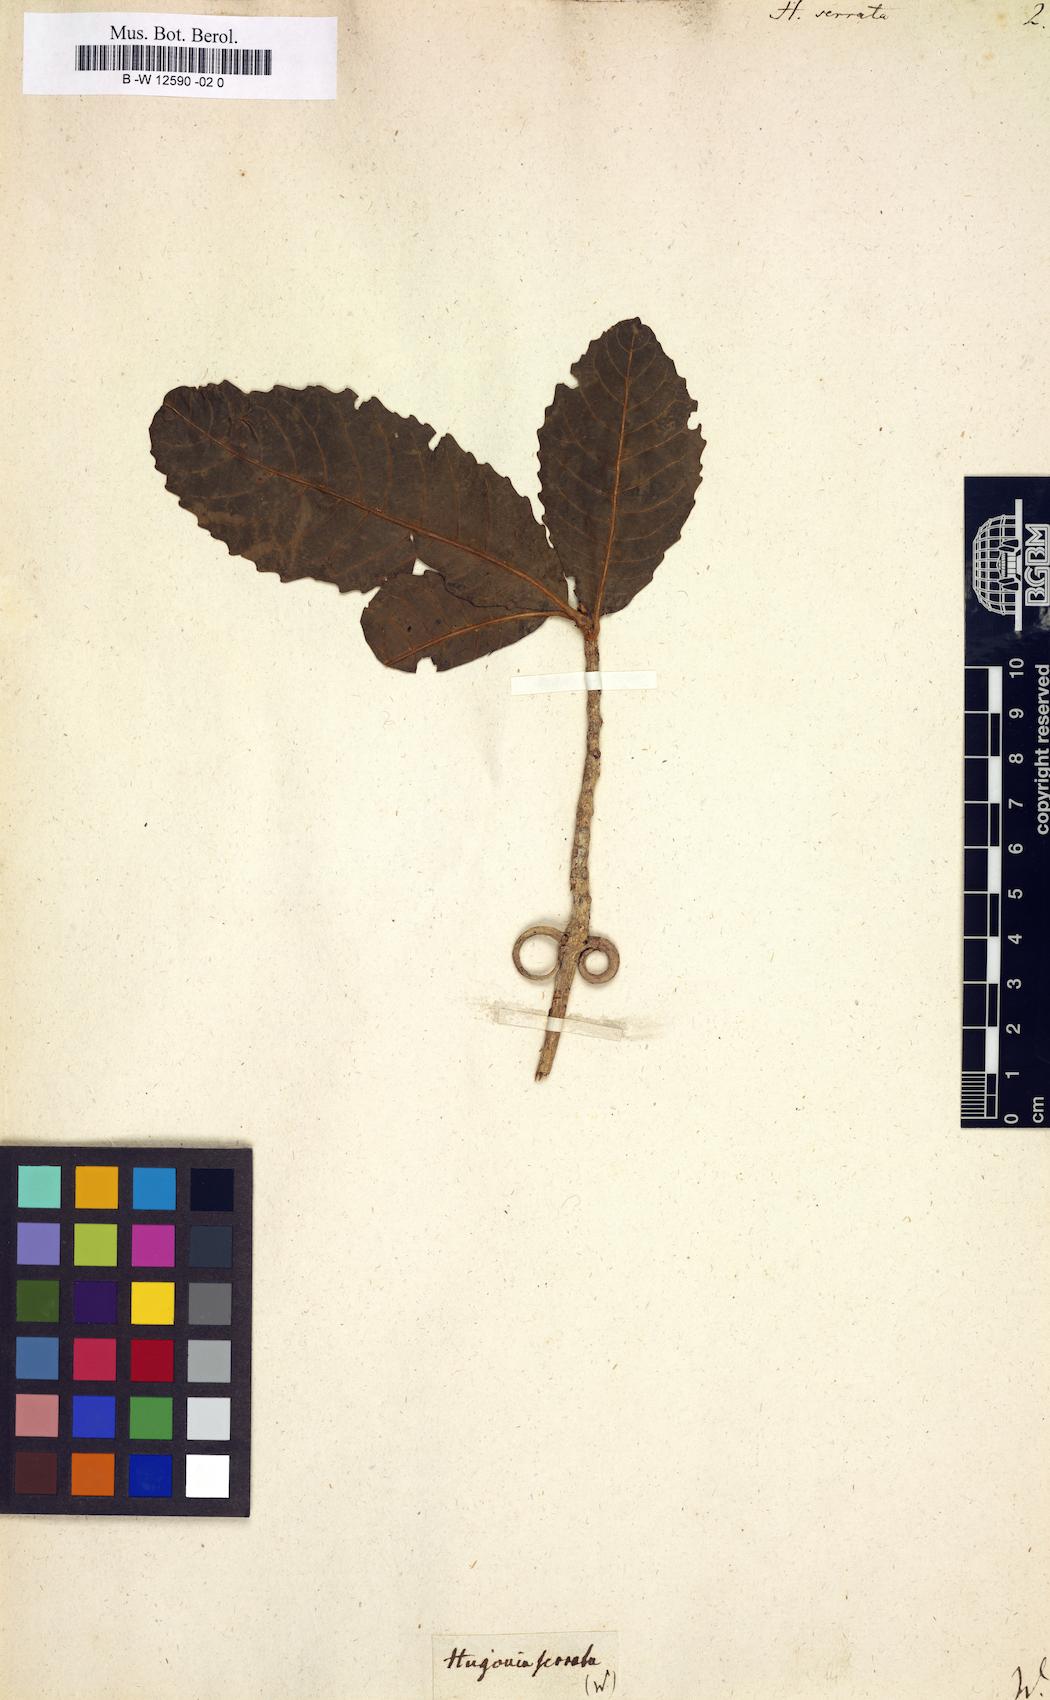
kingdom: Plantae
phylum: Tracheophyta
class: Magnoliopsida
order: Malpighiales
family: Linaceae
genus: Hugonia
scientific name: Hugonia serrata
